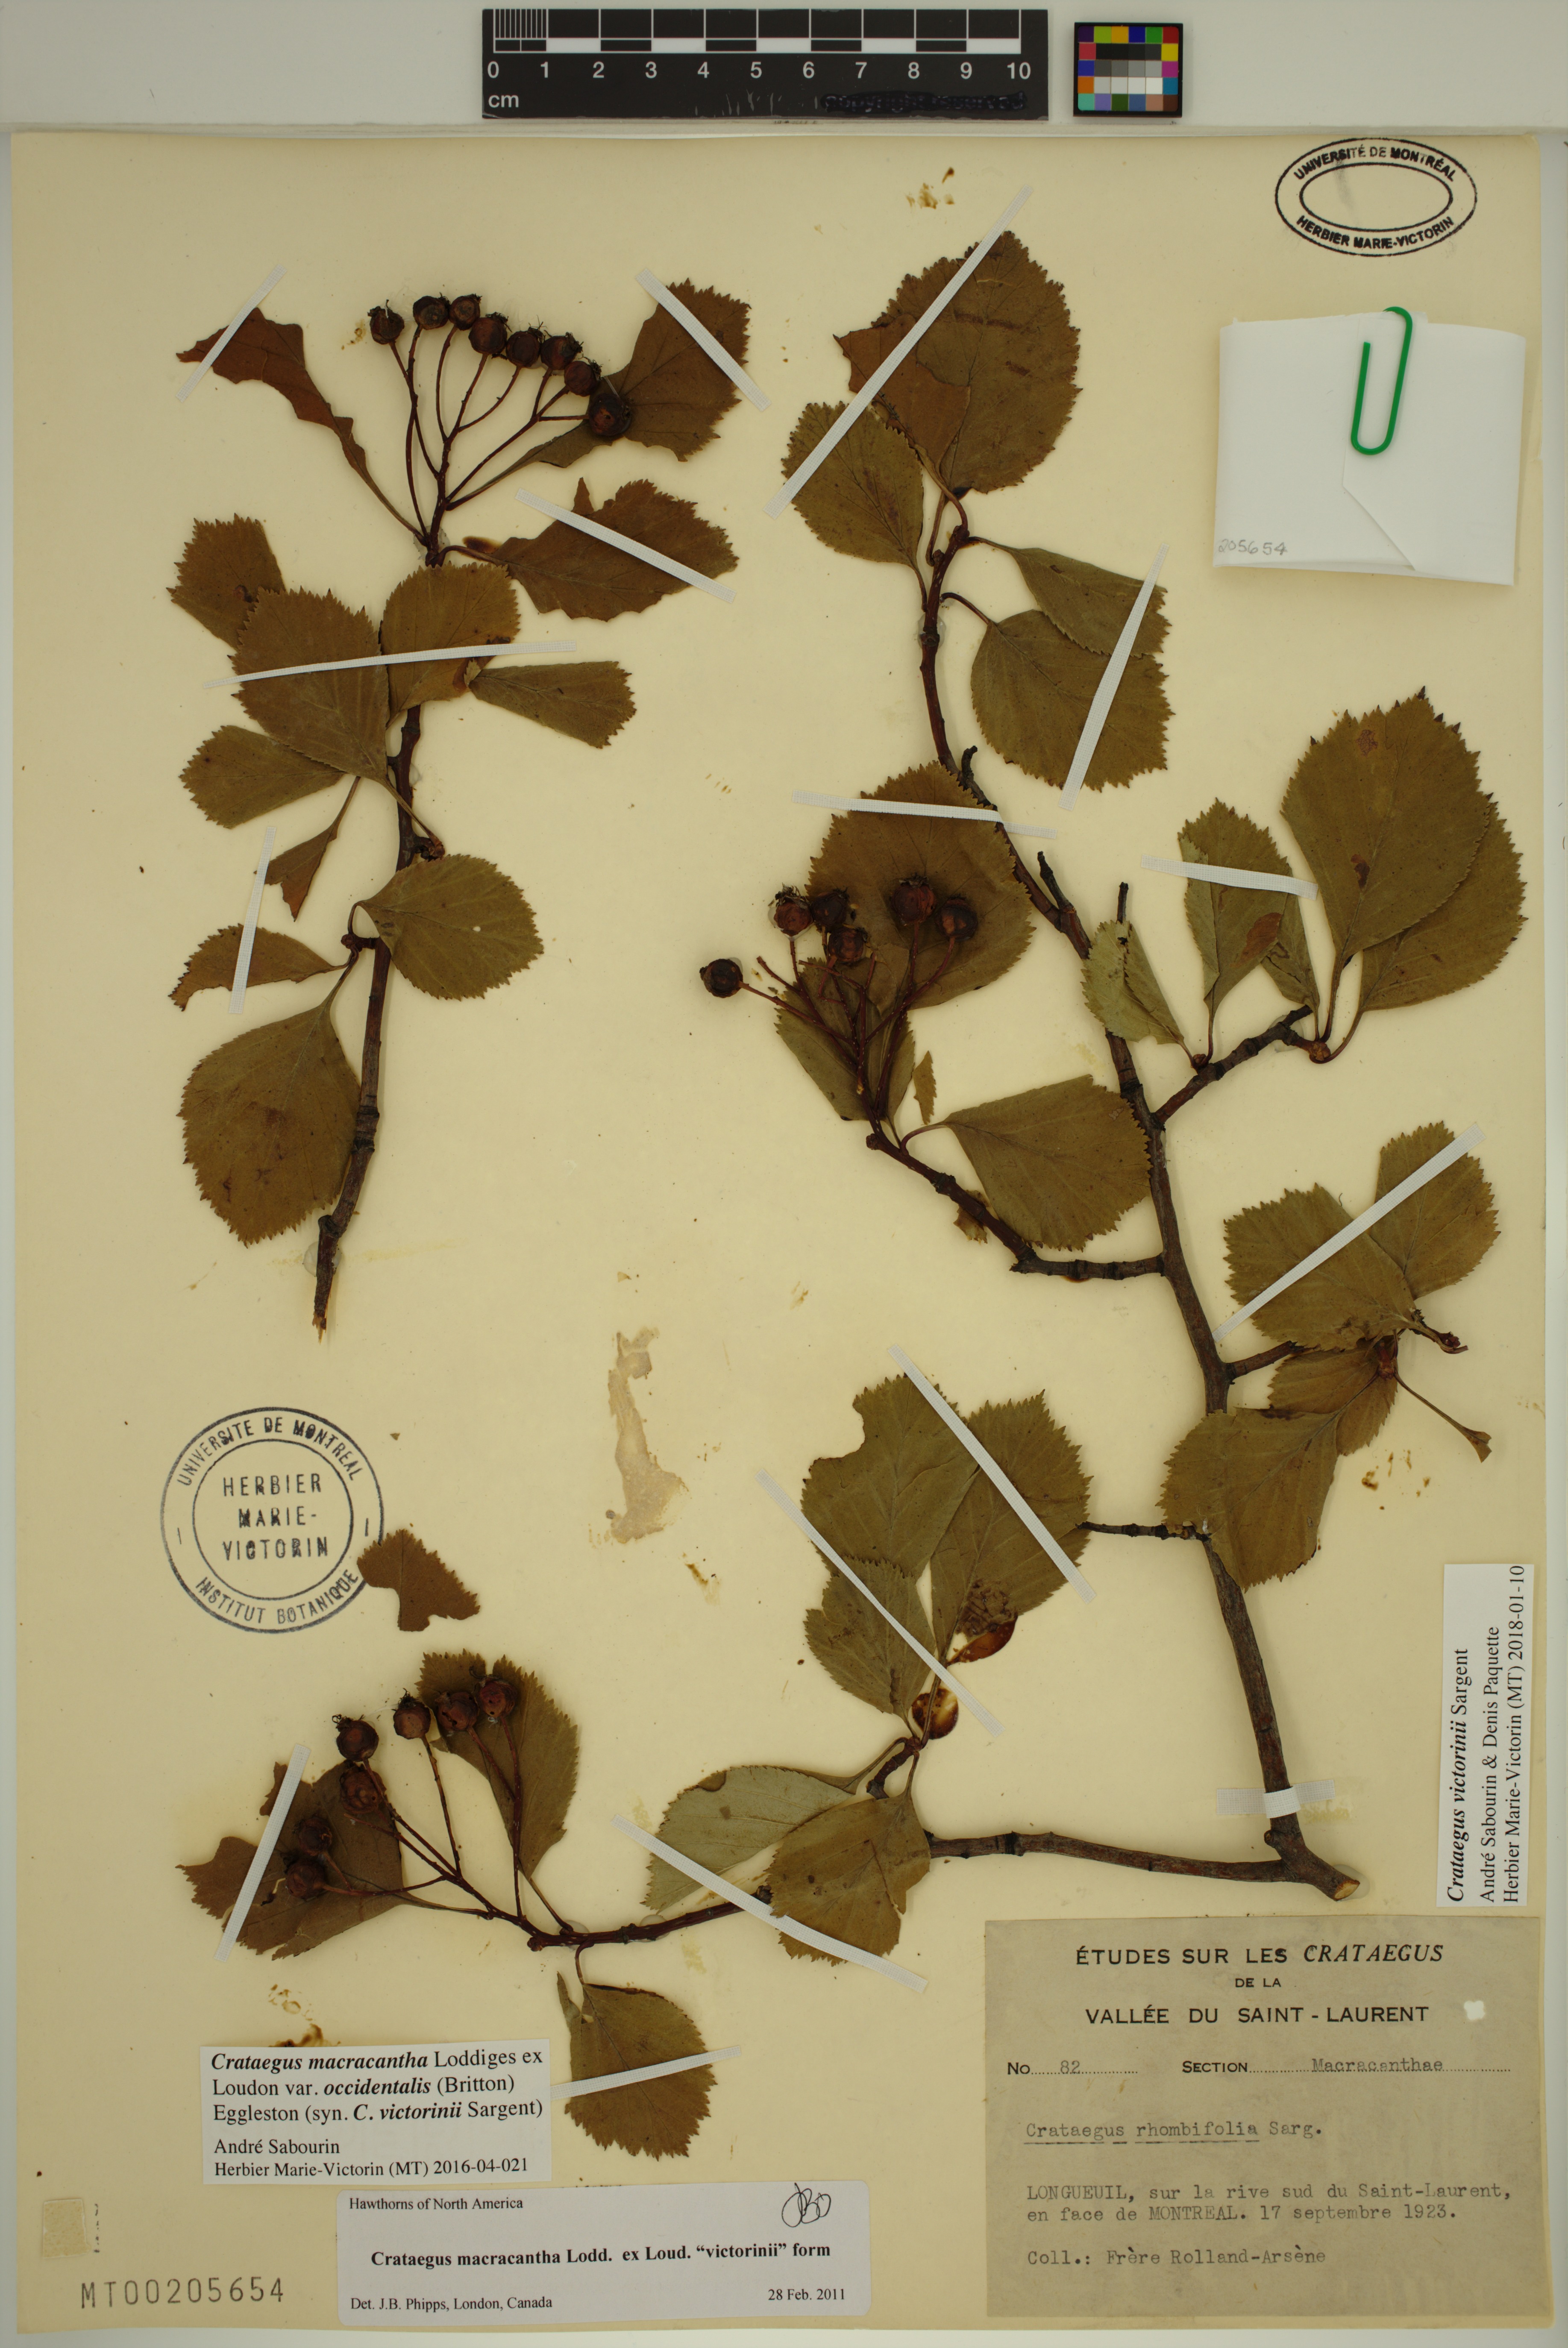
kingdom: Plantae
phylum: Tracheophyta
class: Magnoliopsida
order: Rosales
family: Rosaceae
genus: Crataegus
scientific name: Crataegus macracantha
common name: Large-thorn hawthorn
